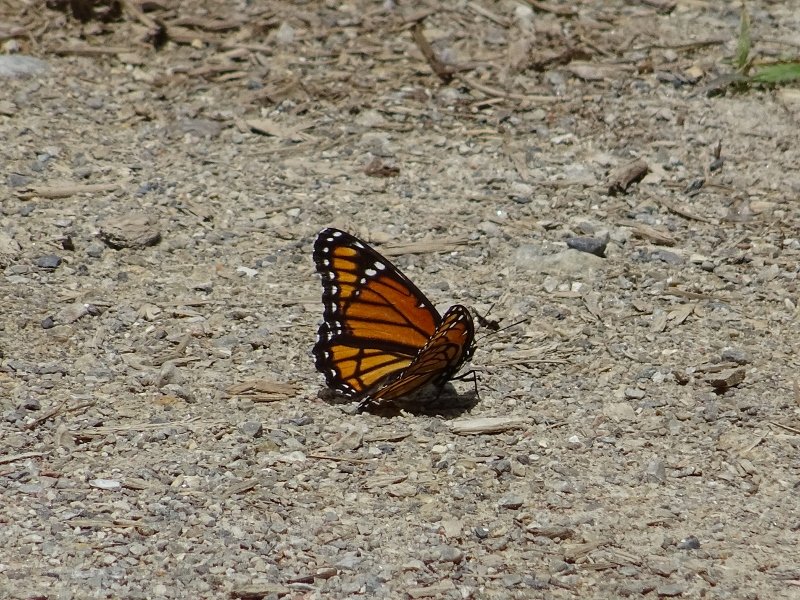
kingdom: Animalia
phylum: Arthropoda
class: Insecta
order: Lepidoptera
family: Nymphalidae
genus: Limenitis
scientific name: Limenitis archippus
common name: Viceroy
